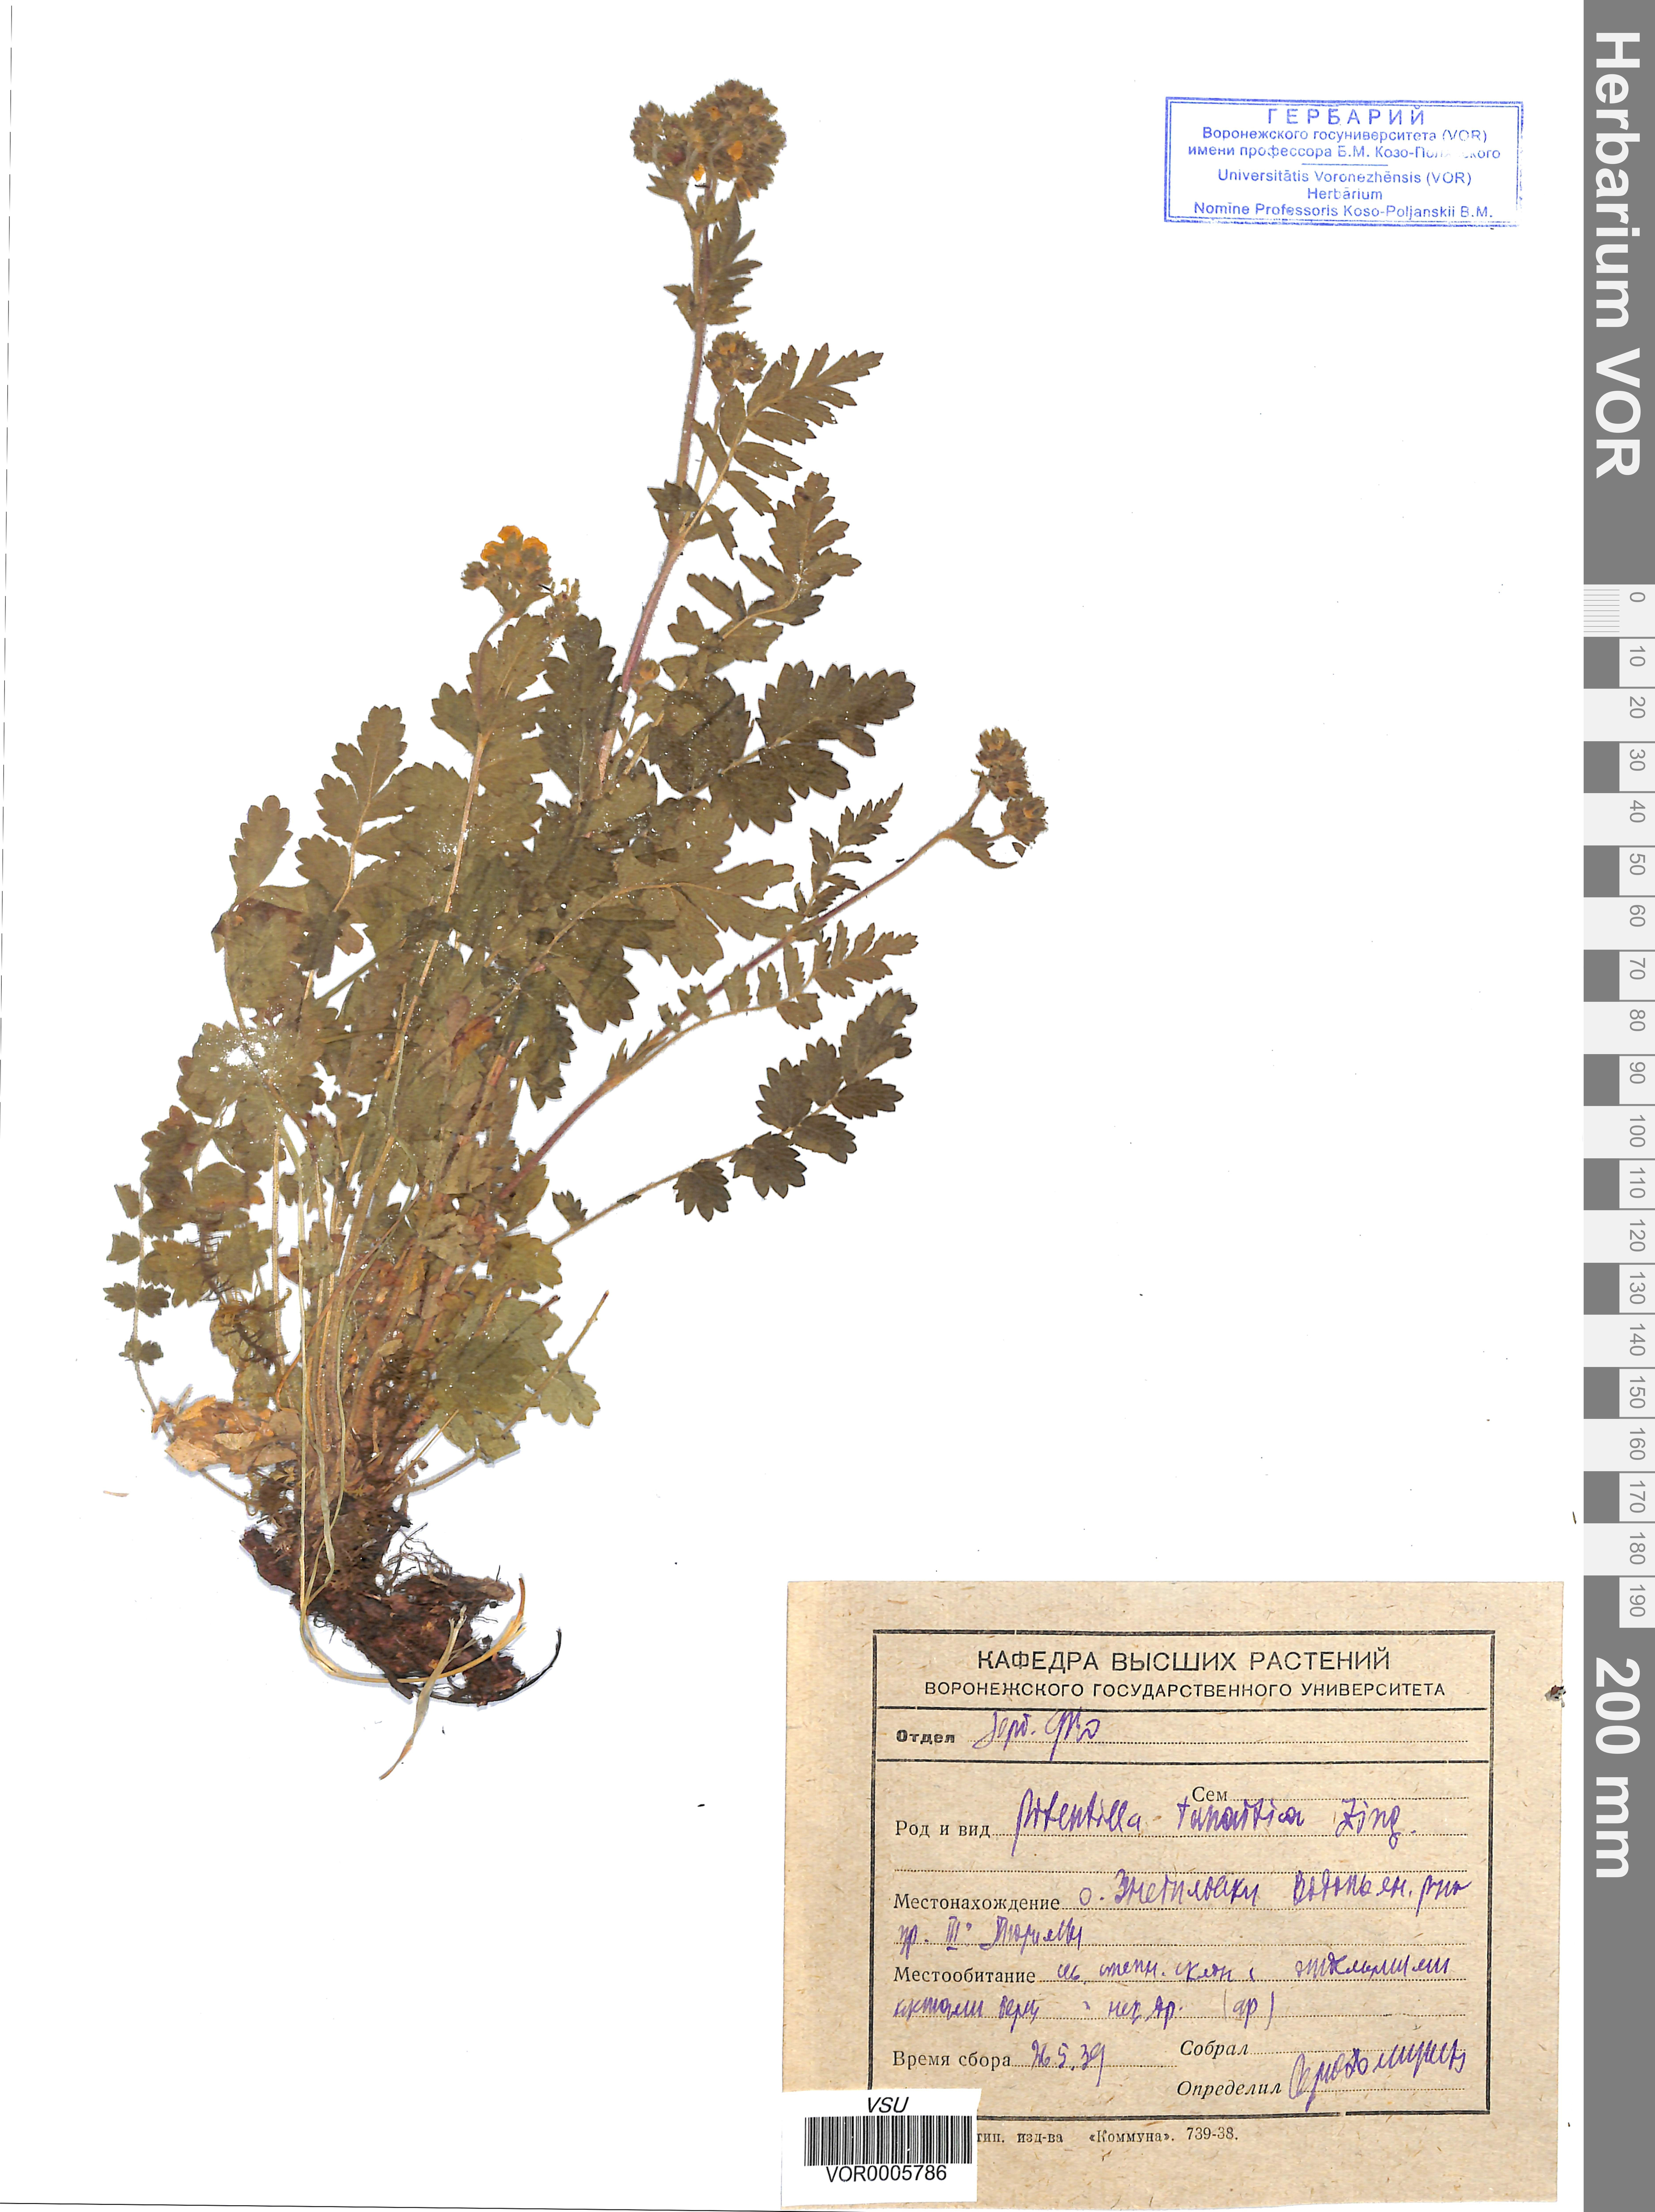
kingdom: Plantae
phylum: Tracheophyta
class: Magnoliopsida
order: Rosales
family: Rosaceae
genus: Potentilla
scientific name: Potentilla tanaitica
